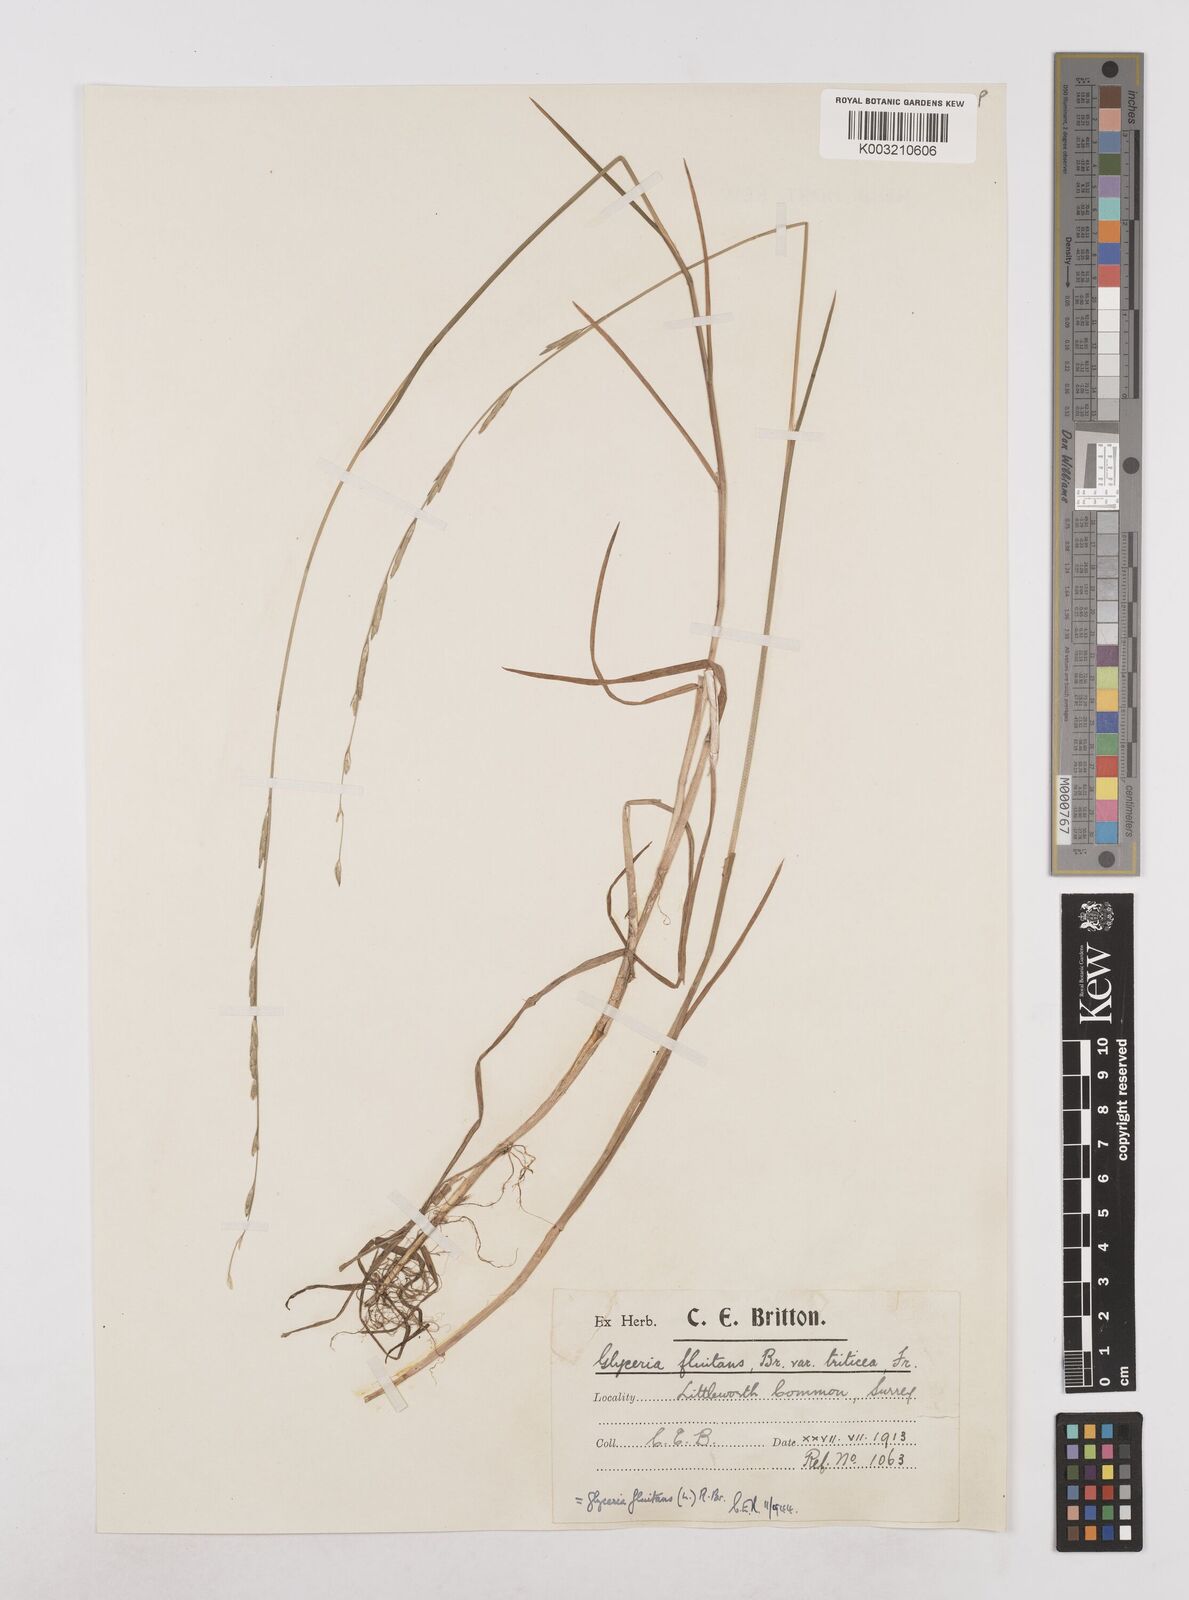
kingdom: Plantae
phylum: Tracheophyta
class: Liliopsida
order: Poales
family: Poaceae
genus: Glyceria
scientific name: Glyceria fluitans
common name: Floating sweet-grass
